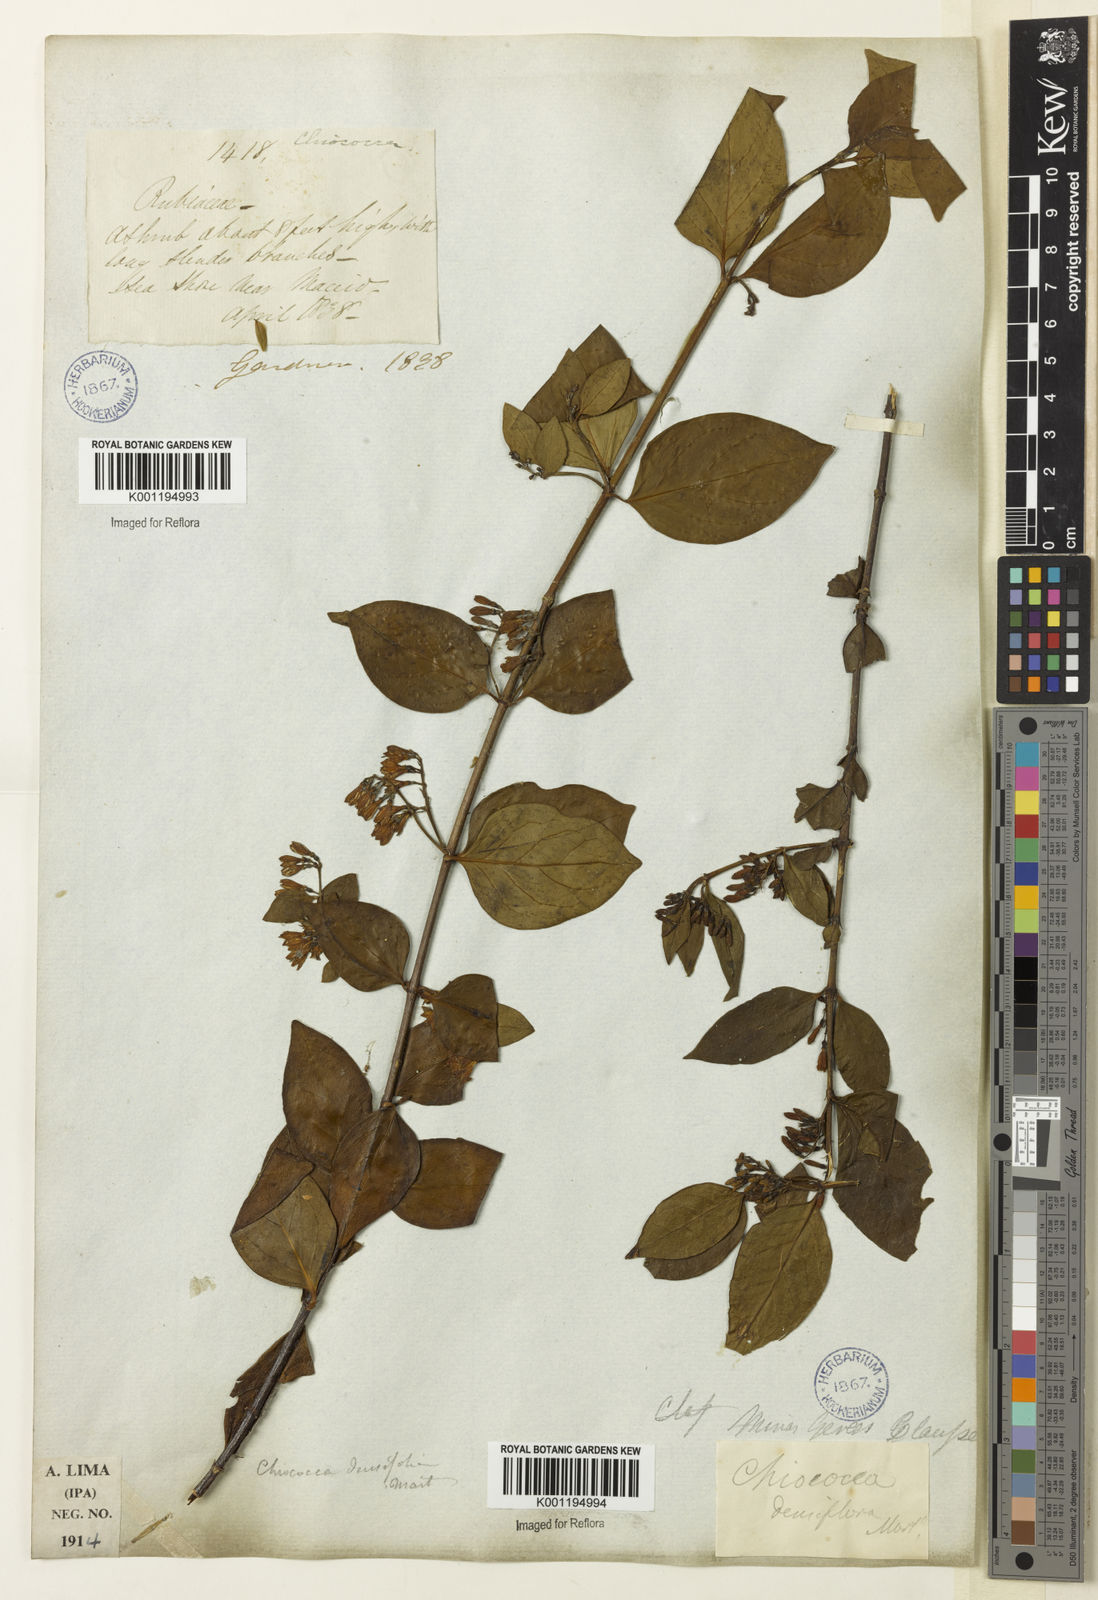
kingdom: Plantae
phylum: Tracheophyta
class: Magnoliopsida
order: Gentianales
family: Rubiaceae
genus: Chiococca
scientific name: Chiococca alba
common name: Snowberry
